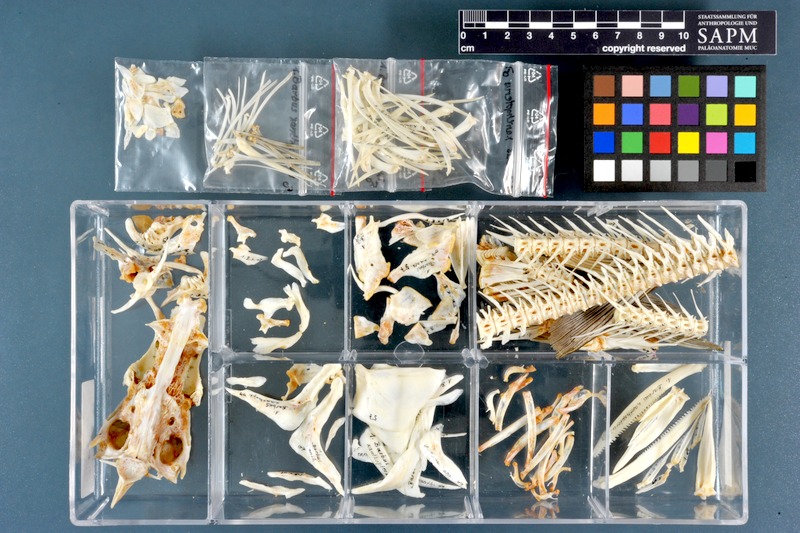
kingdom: Animalia
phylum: Chordata
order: Cypriniformes
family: Cyprinidae
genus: Luciobarbus
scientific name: Luciobarbus xanthopterus
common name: Yellowfin barbel
